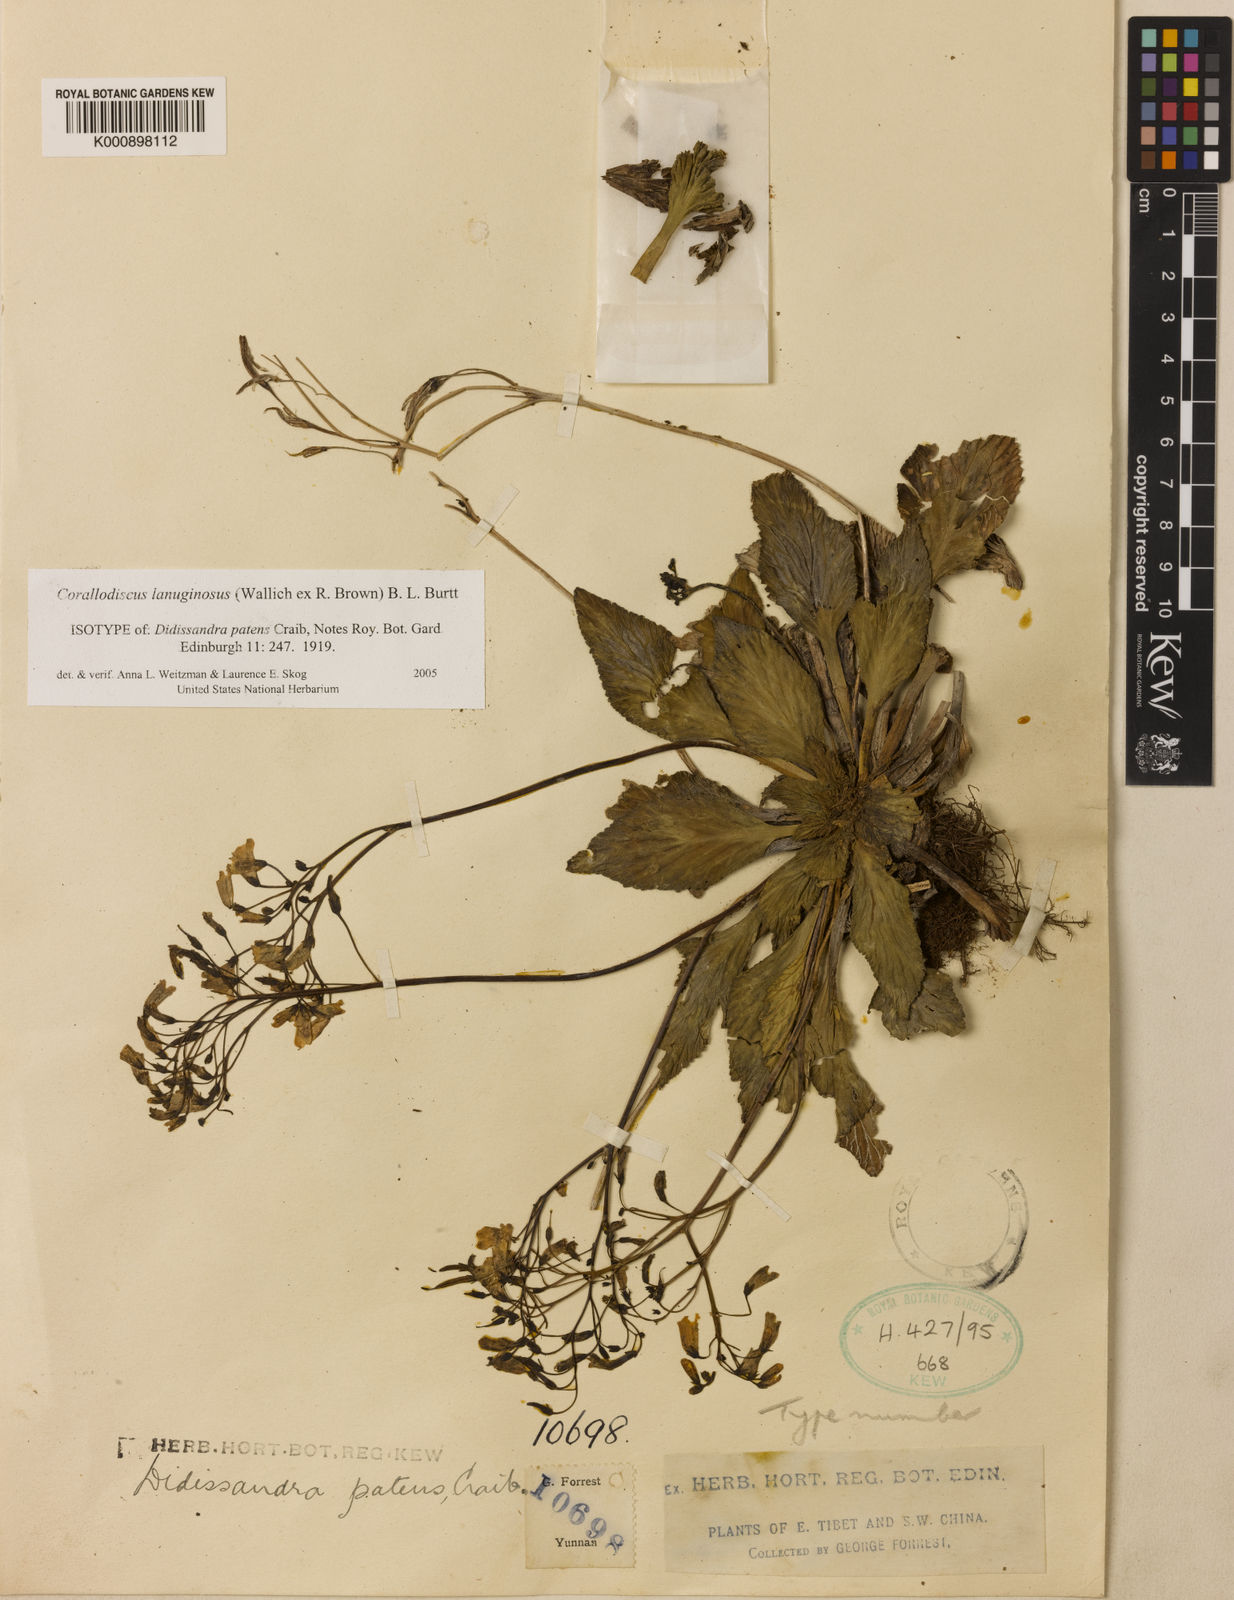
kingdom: Plantae
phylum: Tracheophyta
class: Magnoliopsida
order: Lamiales
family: Gesneriaceae
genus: Corallodiscus
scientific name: Corallodiscus lanuginosus
